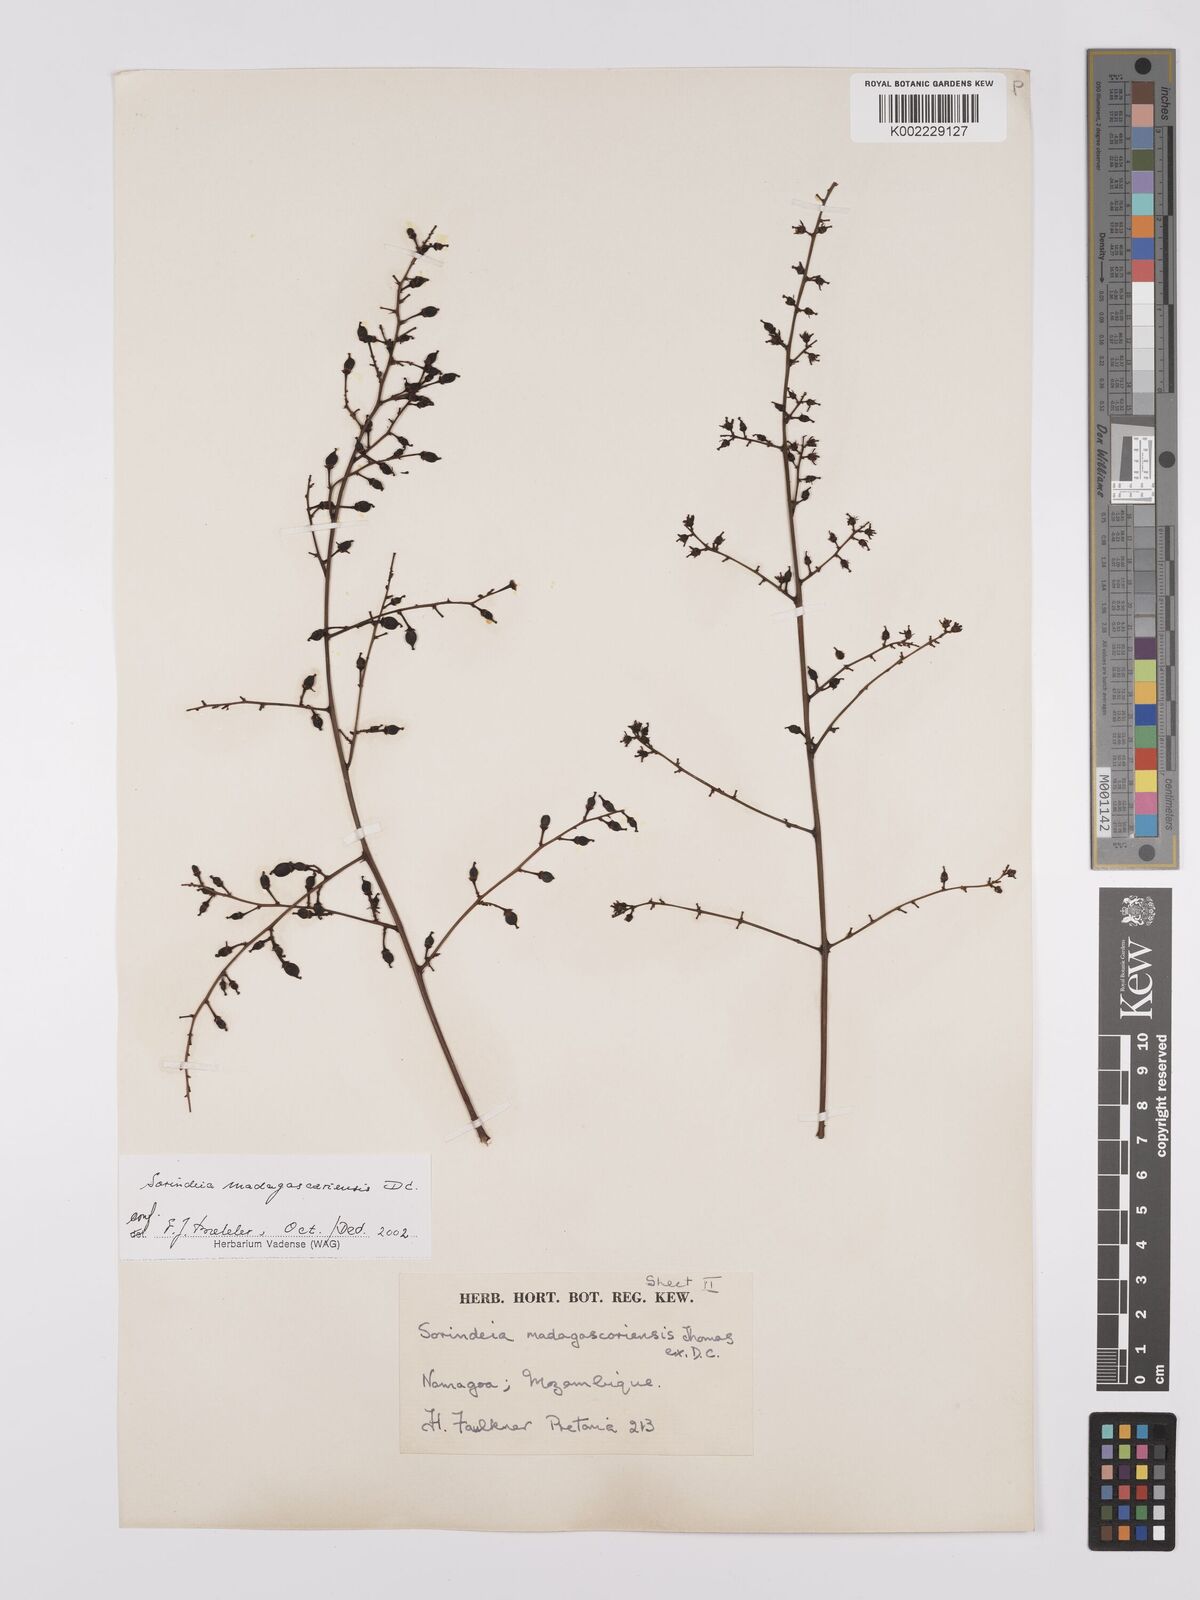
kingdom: Plantae
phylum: Tracheophyta
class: Magnoliopsida
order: Sapindales
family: Anacardiaceae
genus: Sorindeia
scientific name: Sorindeia madagascariensis
